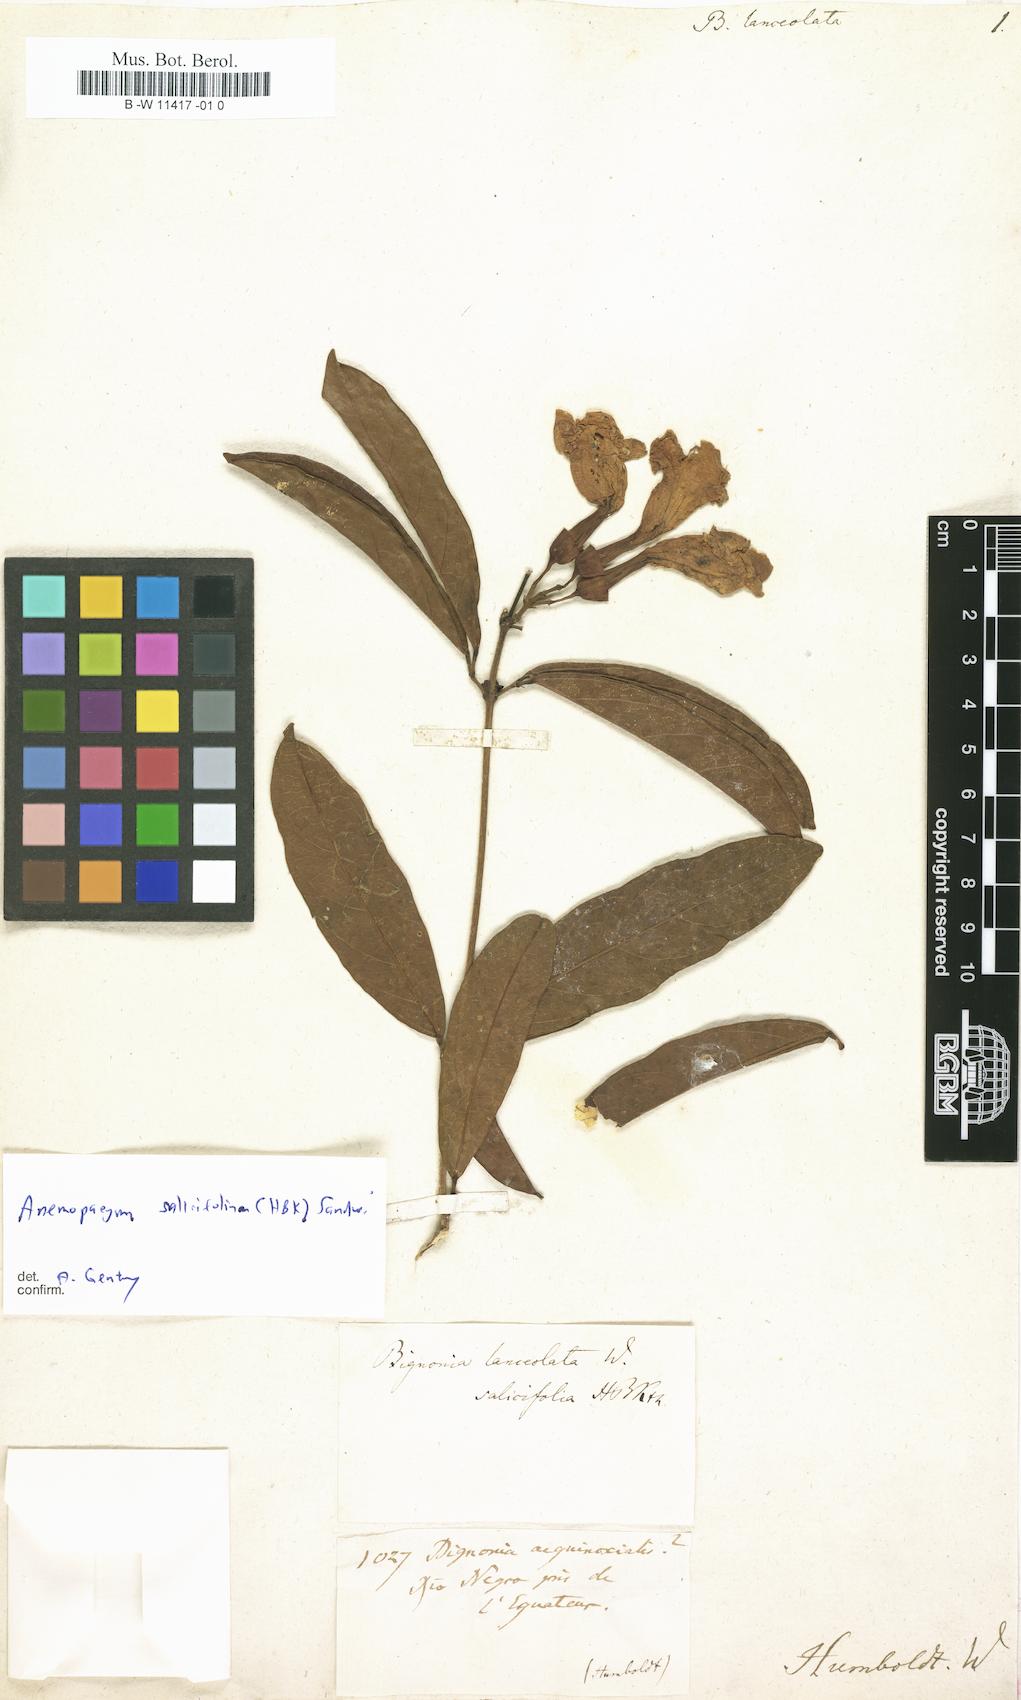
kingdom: Plantae
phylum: Tracheophyta
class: Magnoliopsida
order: Lamiales
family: Bignoniaceae
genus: Anemopaegma
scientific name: Anemopaegma velutinum
